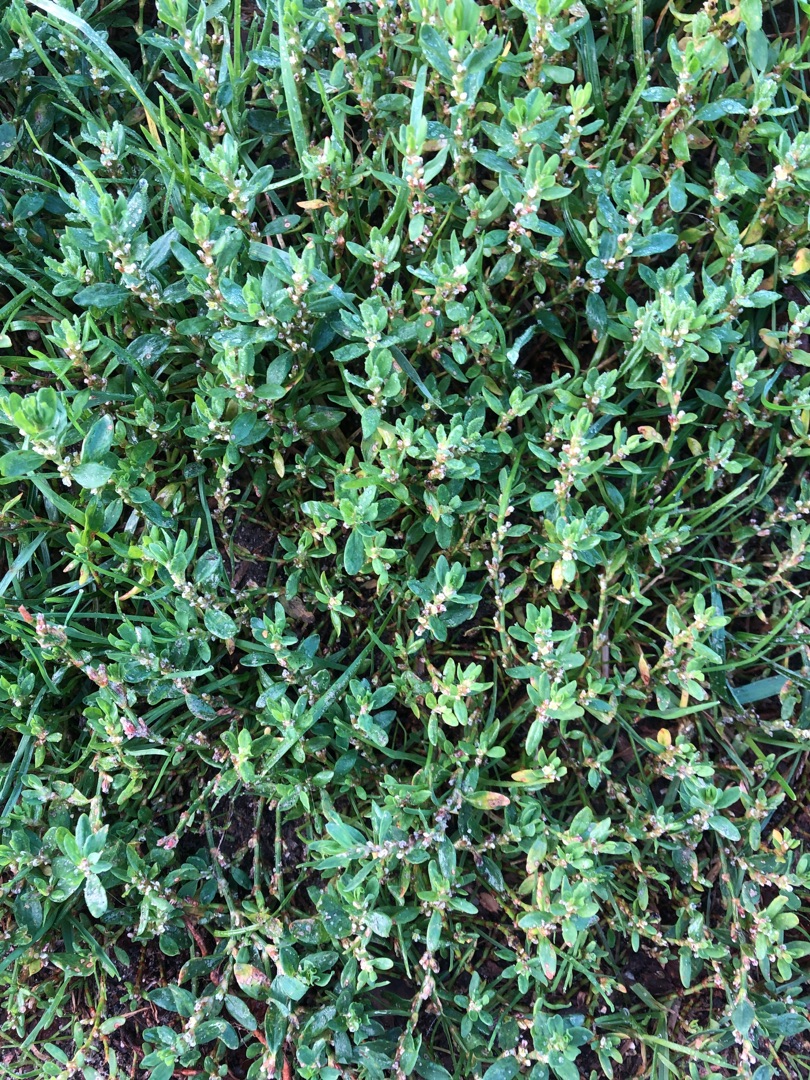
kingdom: Plantae
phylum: Tracheophyta
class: Magnoliopsida
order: Caryophyllales
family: Polygonaceae
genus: Polygonum
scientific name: Polygonum aviculare
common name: Vej-pileurt
